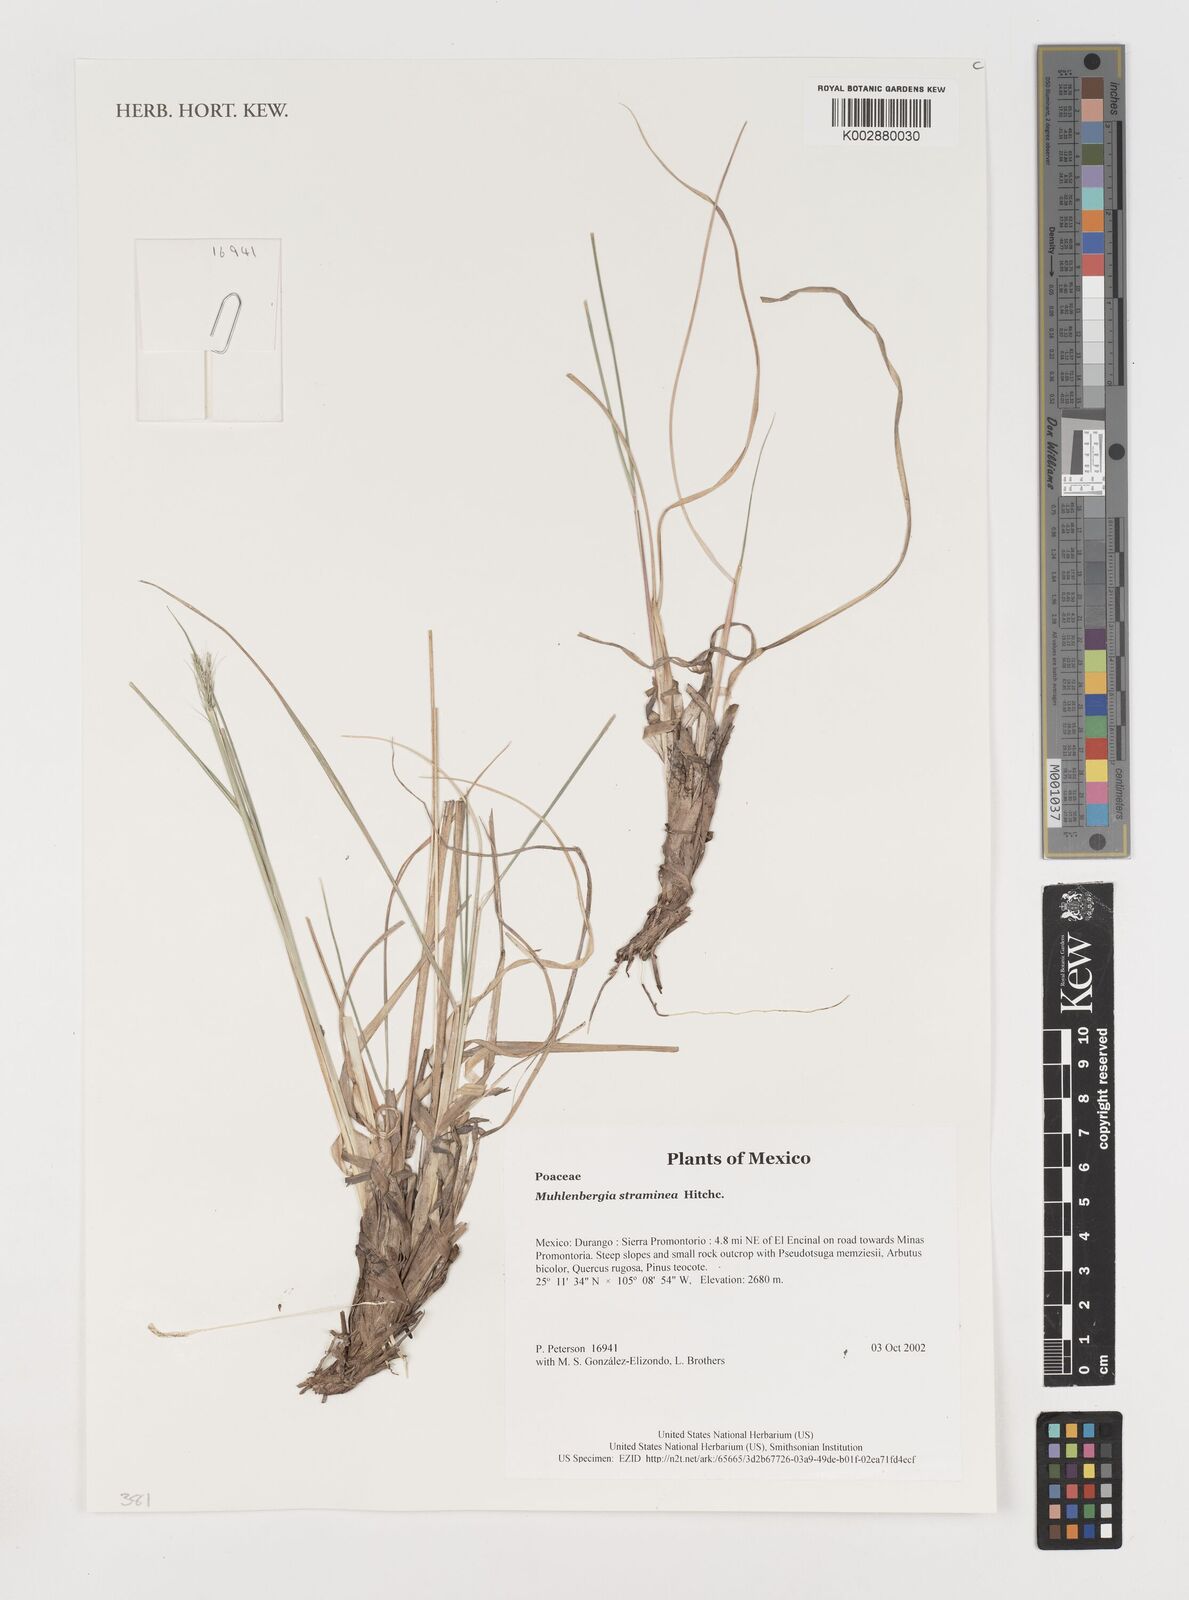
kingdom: Plantae
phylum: Tracheophyta
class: Liliopsida
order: Poales
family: Poaceae
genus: Muhlenbergia
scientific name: Muhlenbergia straminea
